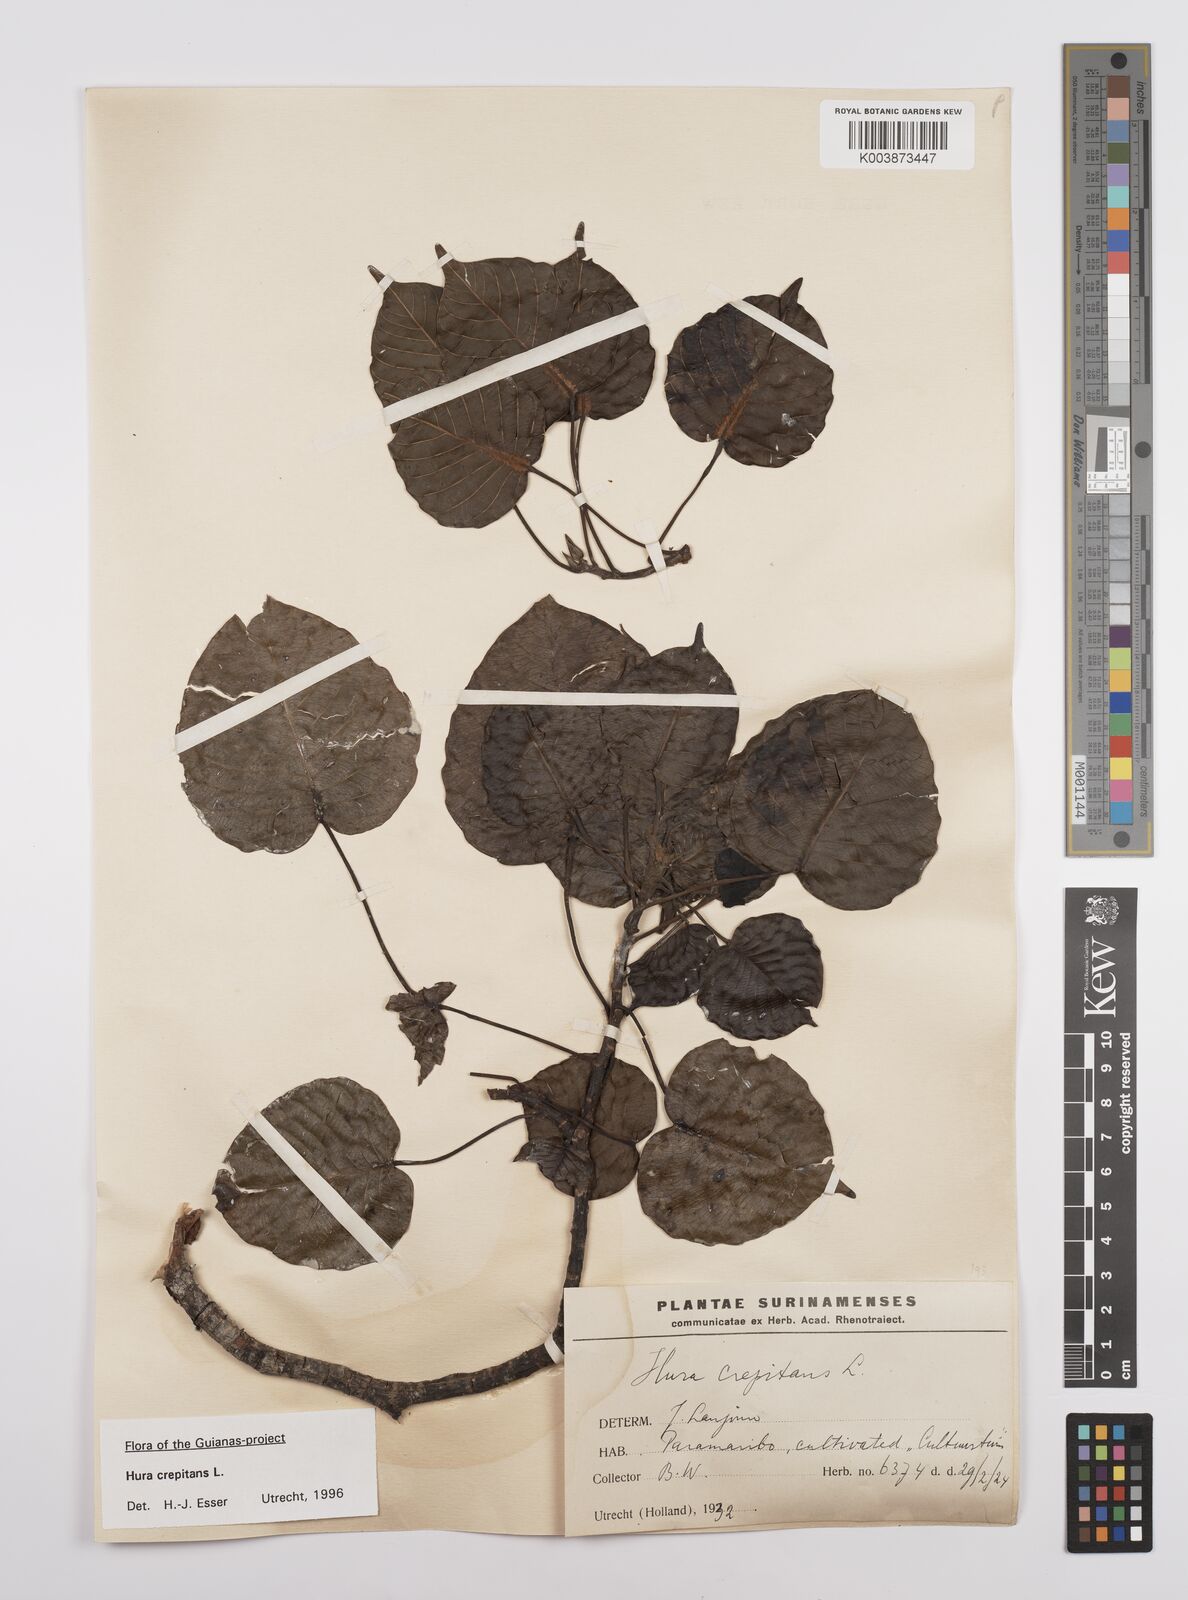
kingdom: Plantae
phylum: Tracheophyta
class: Magnoliopsida
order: Malpighiales
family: Euphorbiaceae
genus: Hura
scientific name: Hura crepitans
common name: Sandboxtree
